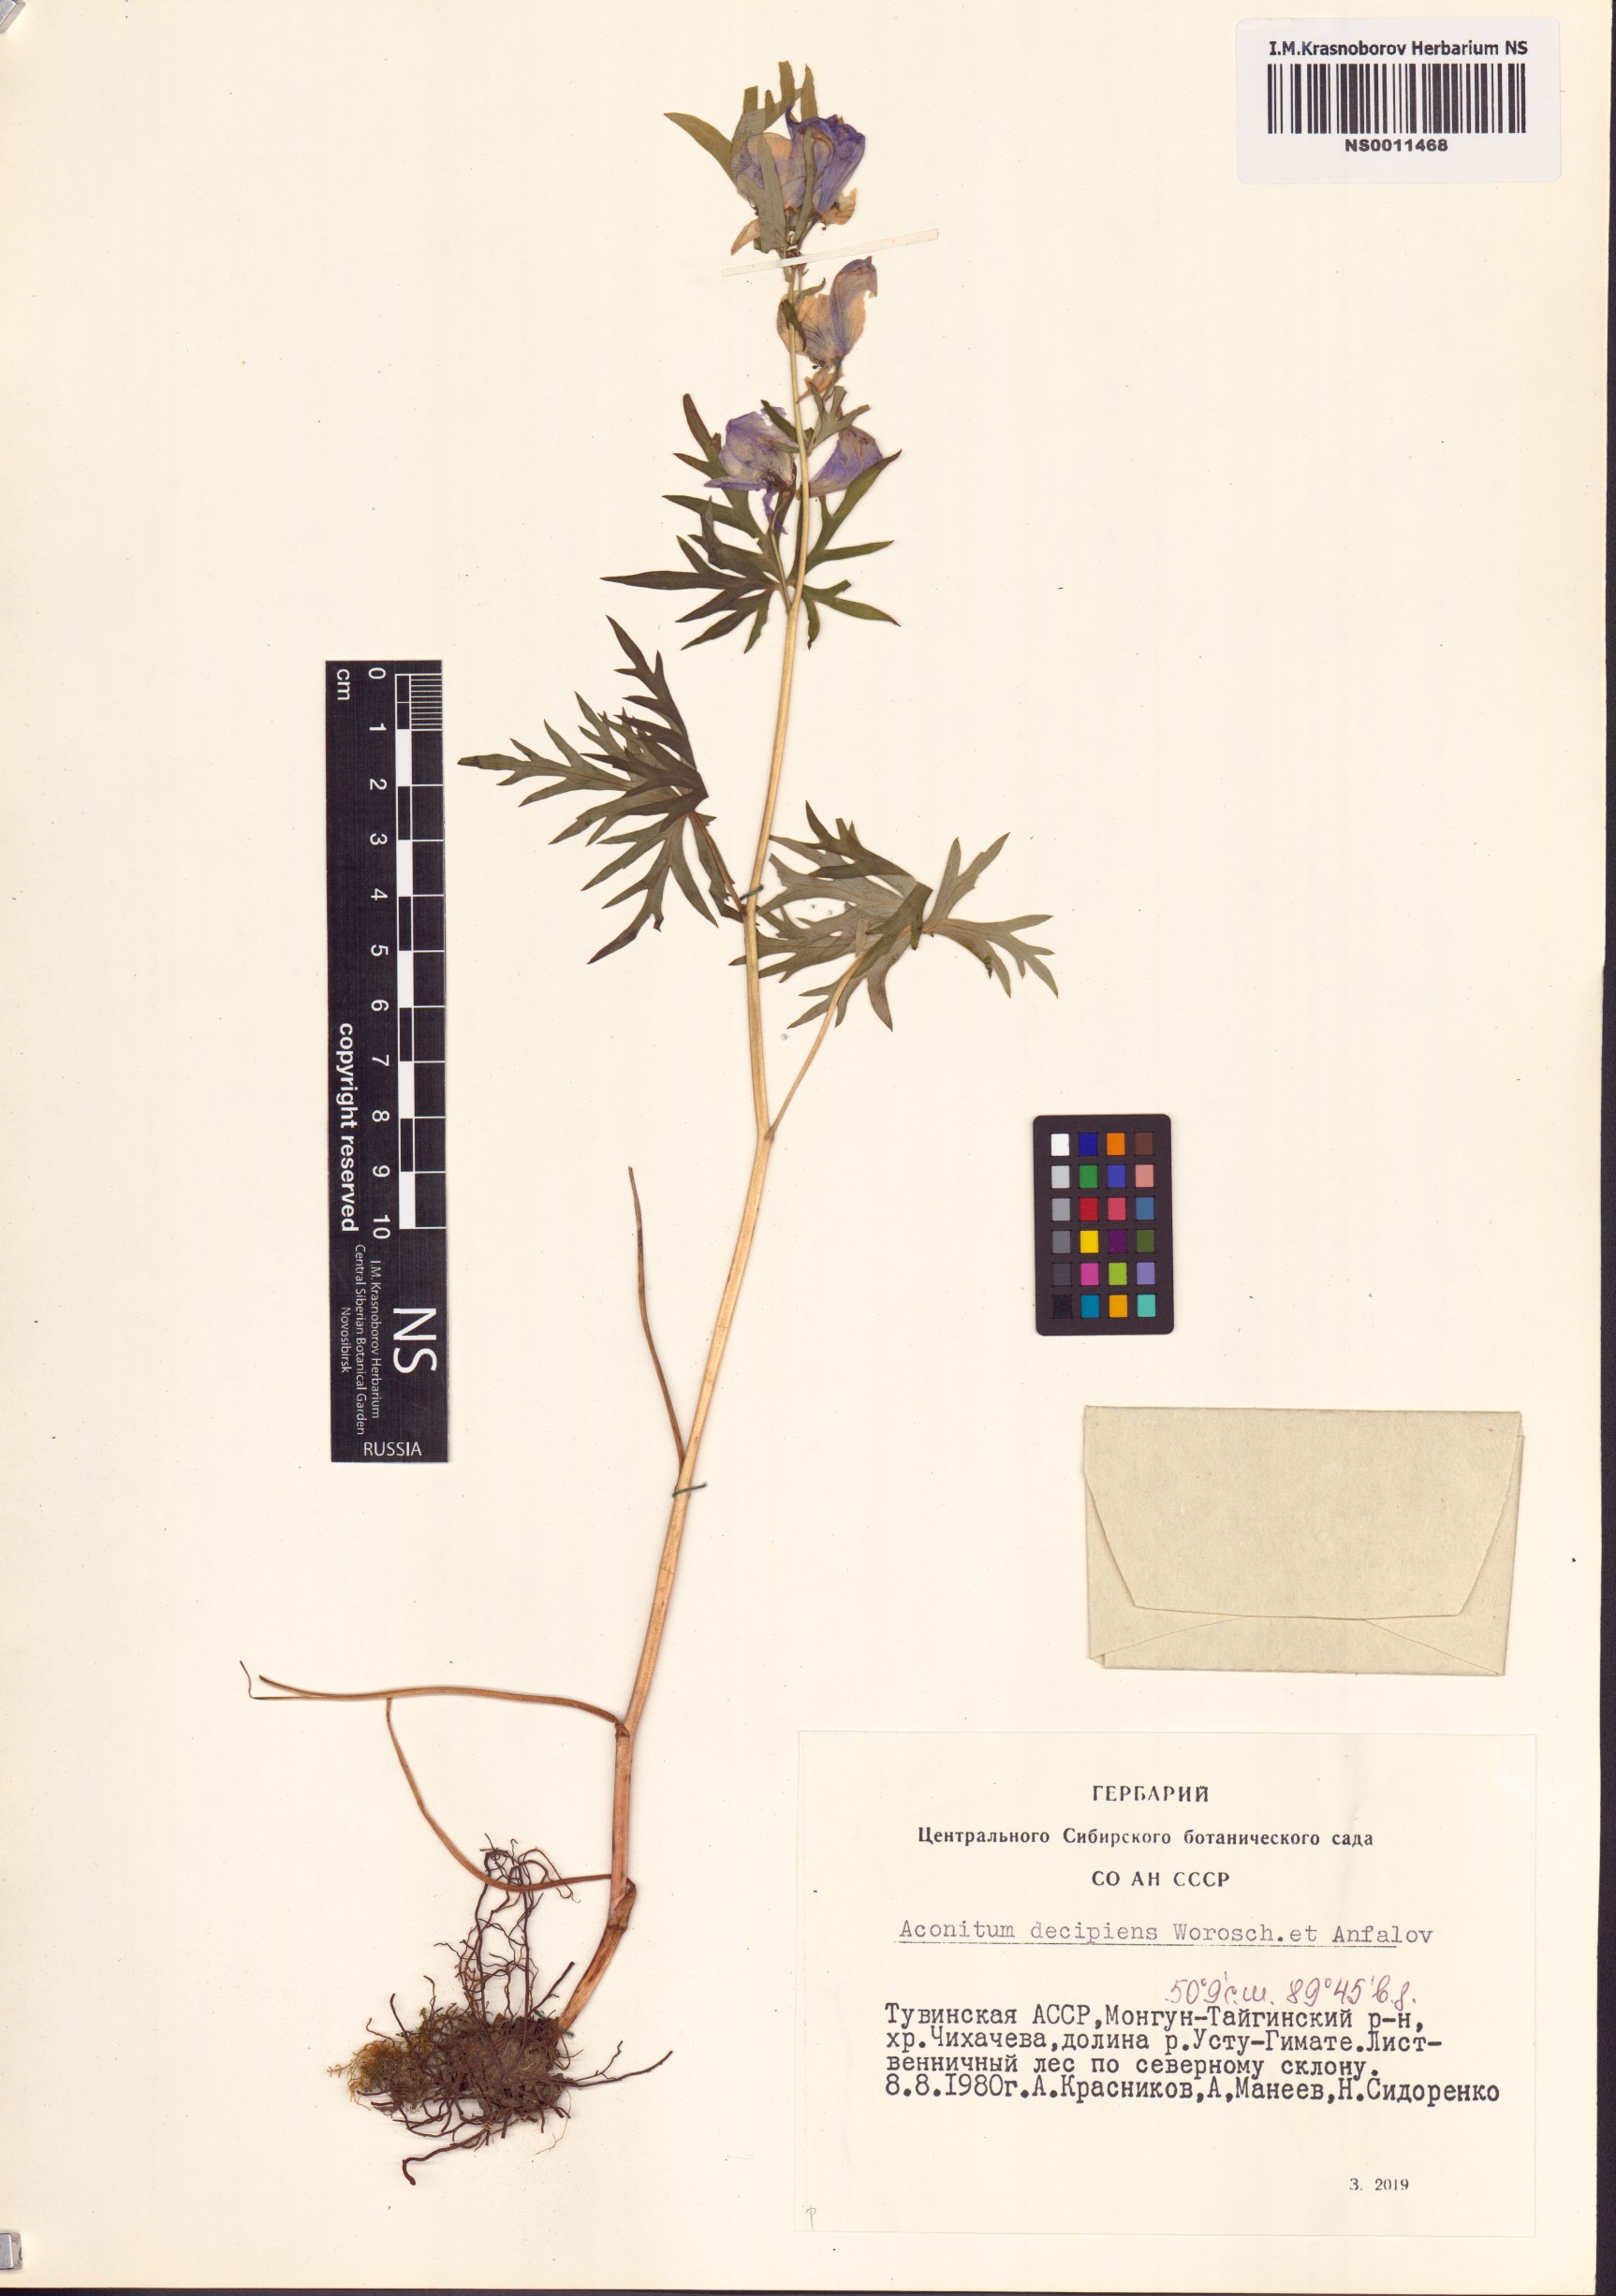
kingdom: Plantae
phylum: Tracheophyta
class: Magnoliopsida
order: Ranunculales
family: Ranunculaceae
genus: Aconitum
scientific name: Aconitum decipiens
